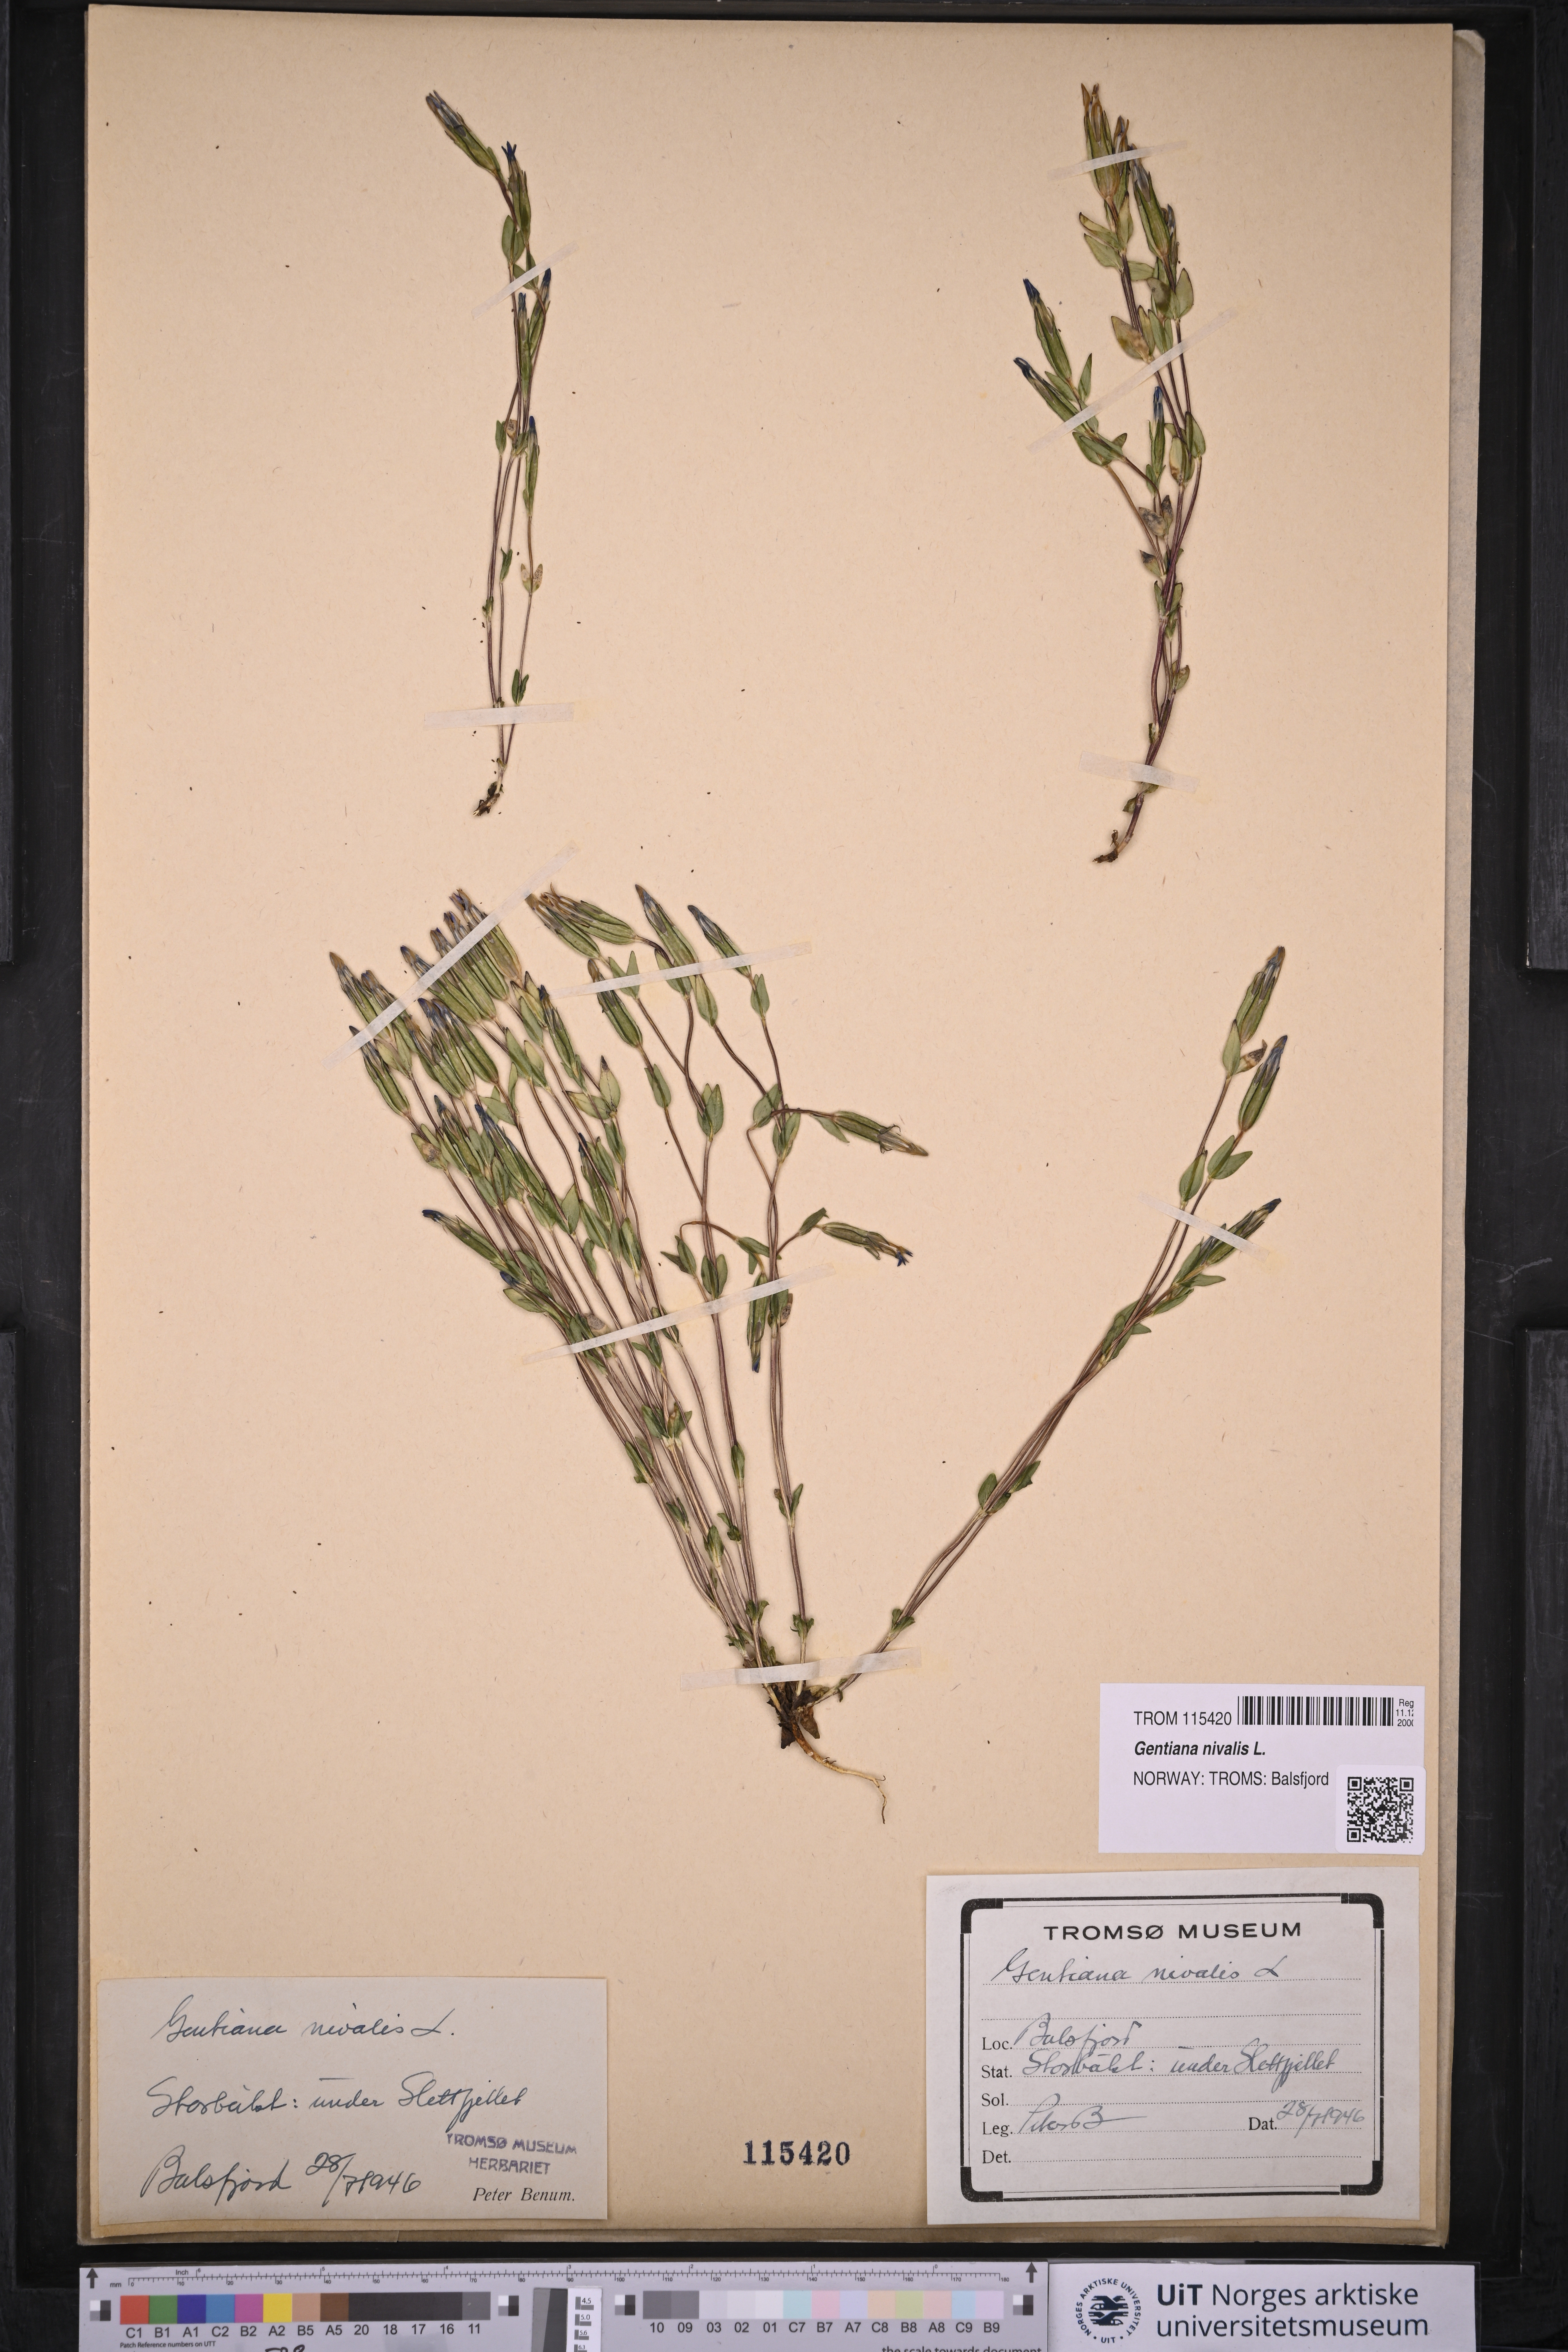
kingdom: Plantae
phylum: Tracheophyta
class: Magnoliopsida
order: Gentianales
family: Gentianaceae
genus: Gentiana
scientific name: Gentiana nivalis
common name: Alpine gentian
